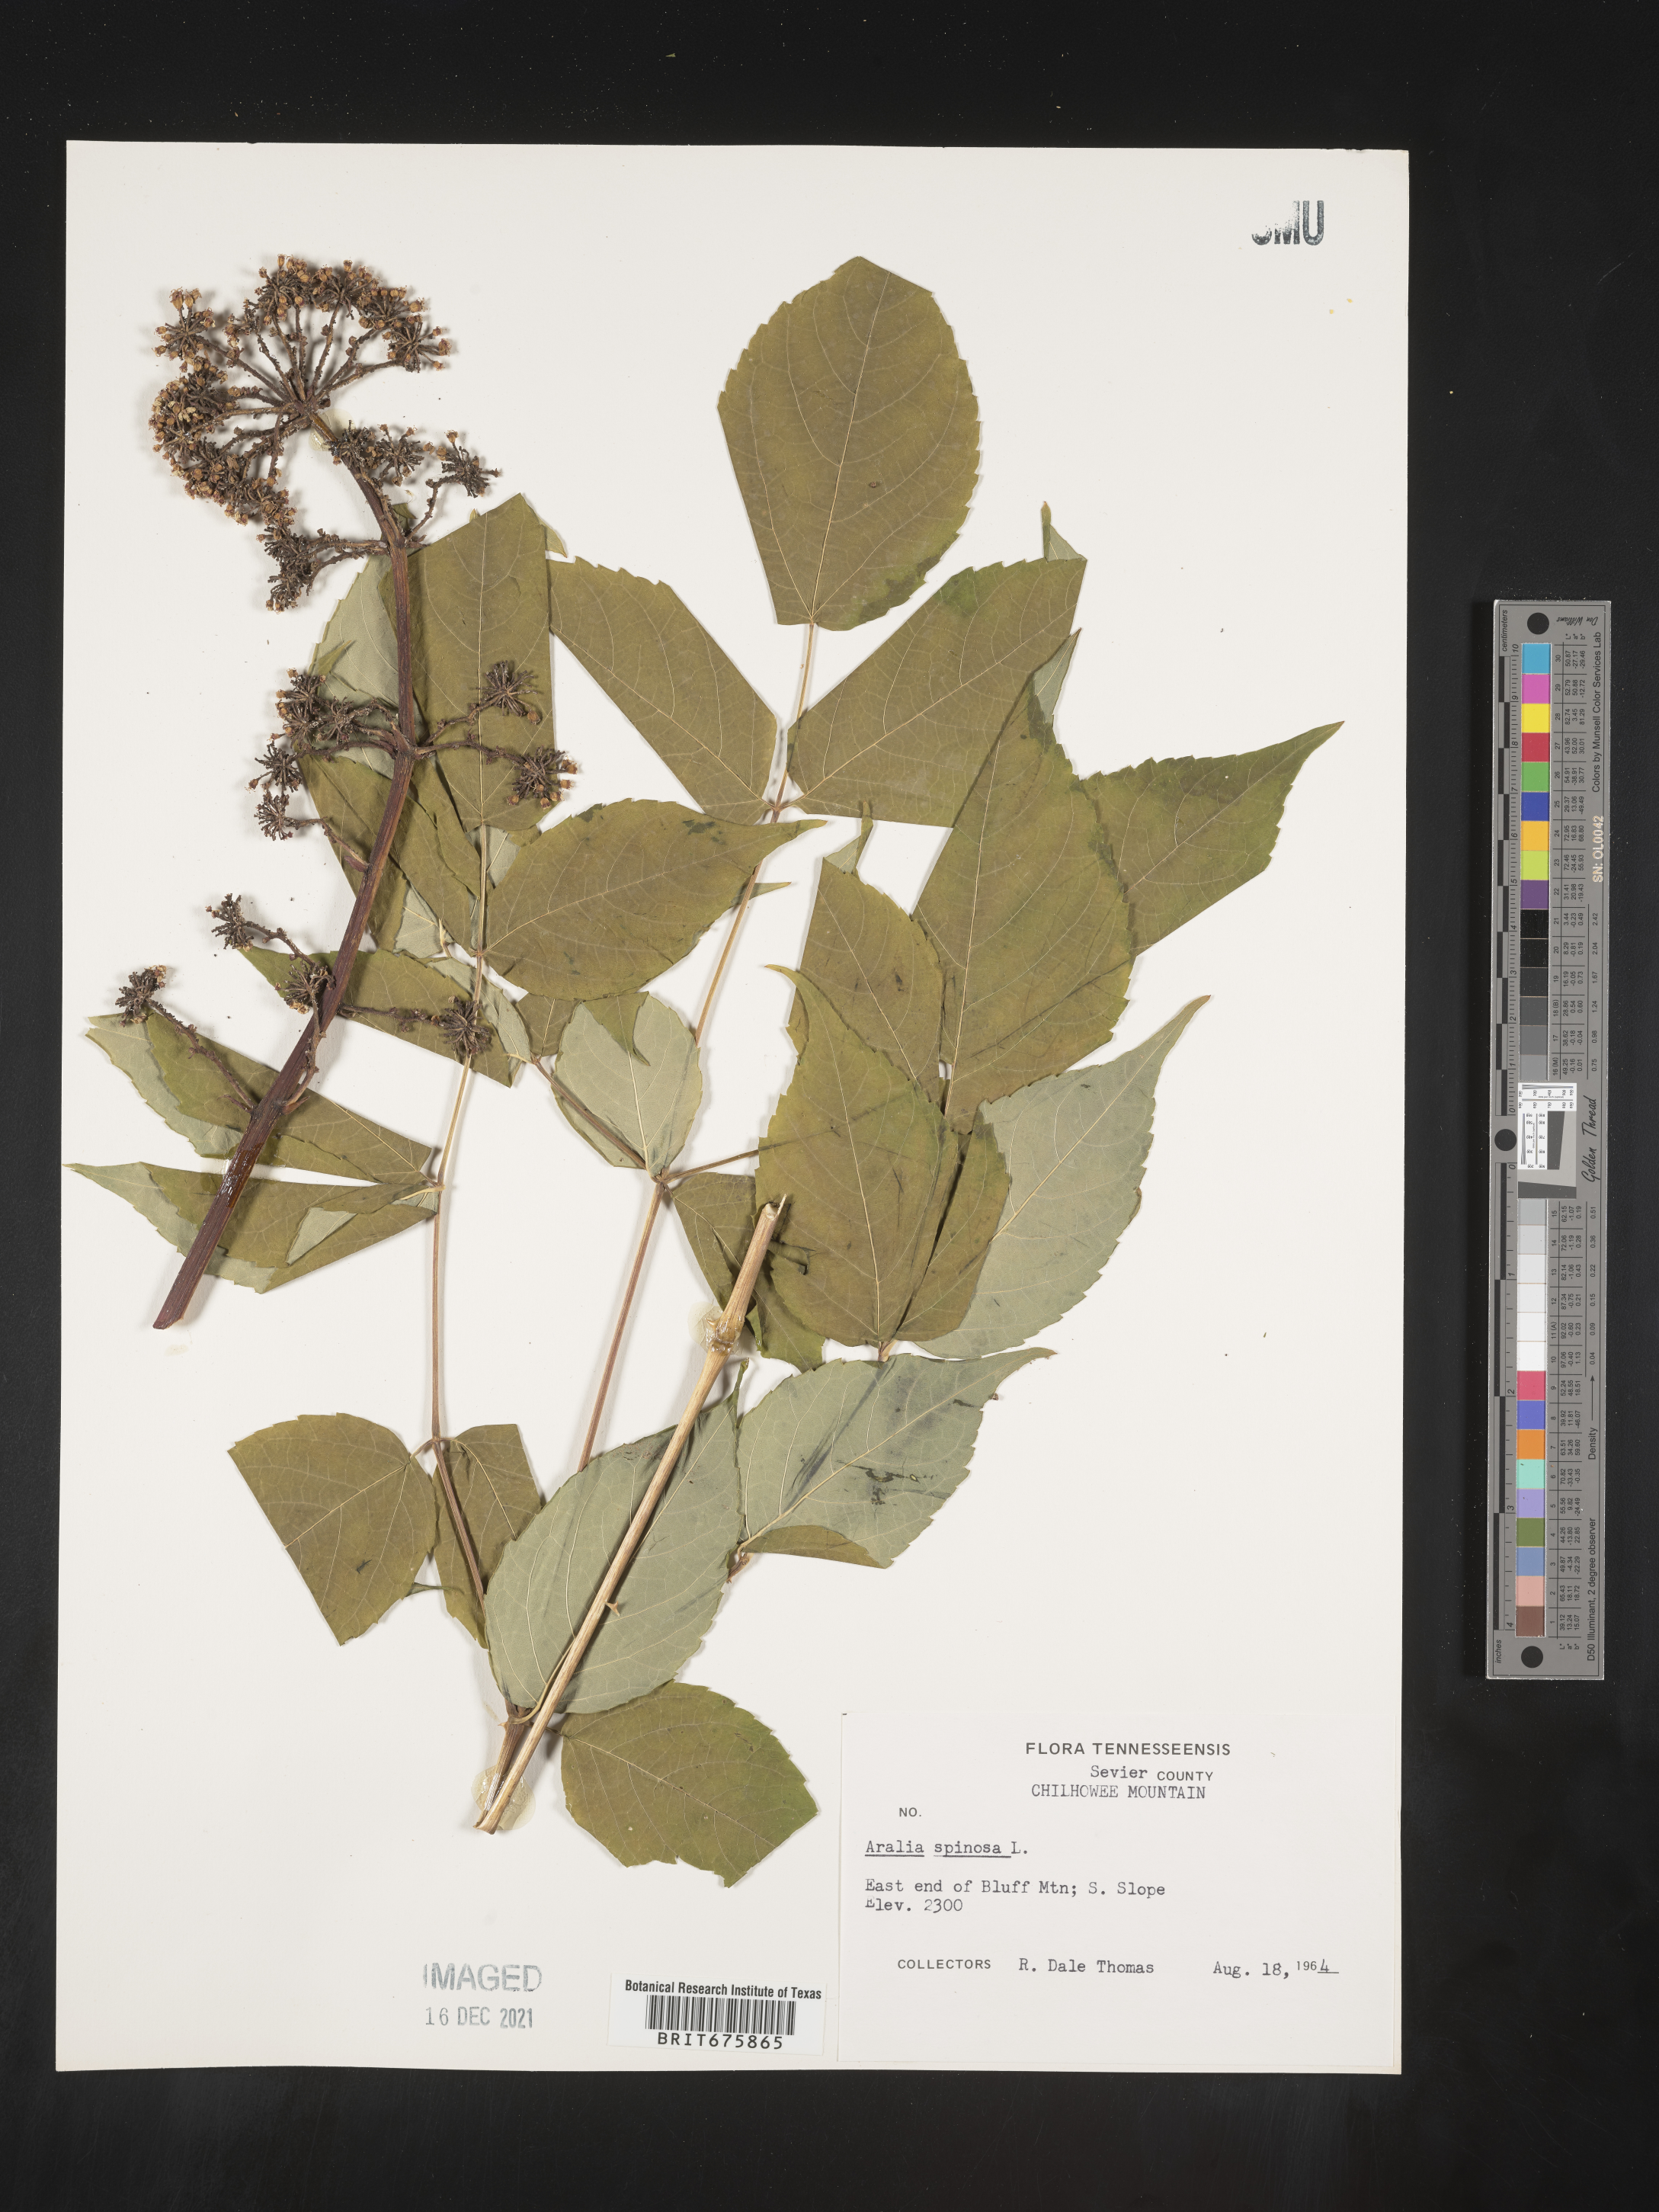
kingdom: Plantae
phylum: Tracheophyta
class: Magnoliopsida
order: Apiales
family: Araliaceae
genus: Aralia
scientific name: Aralia spinosa
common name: Hercules'-club
